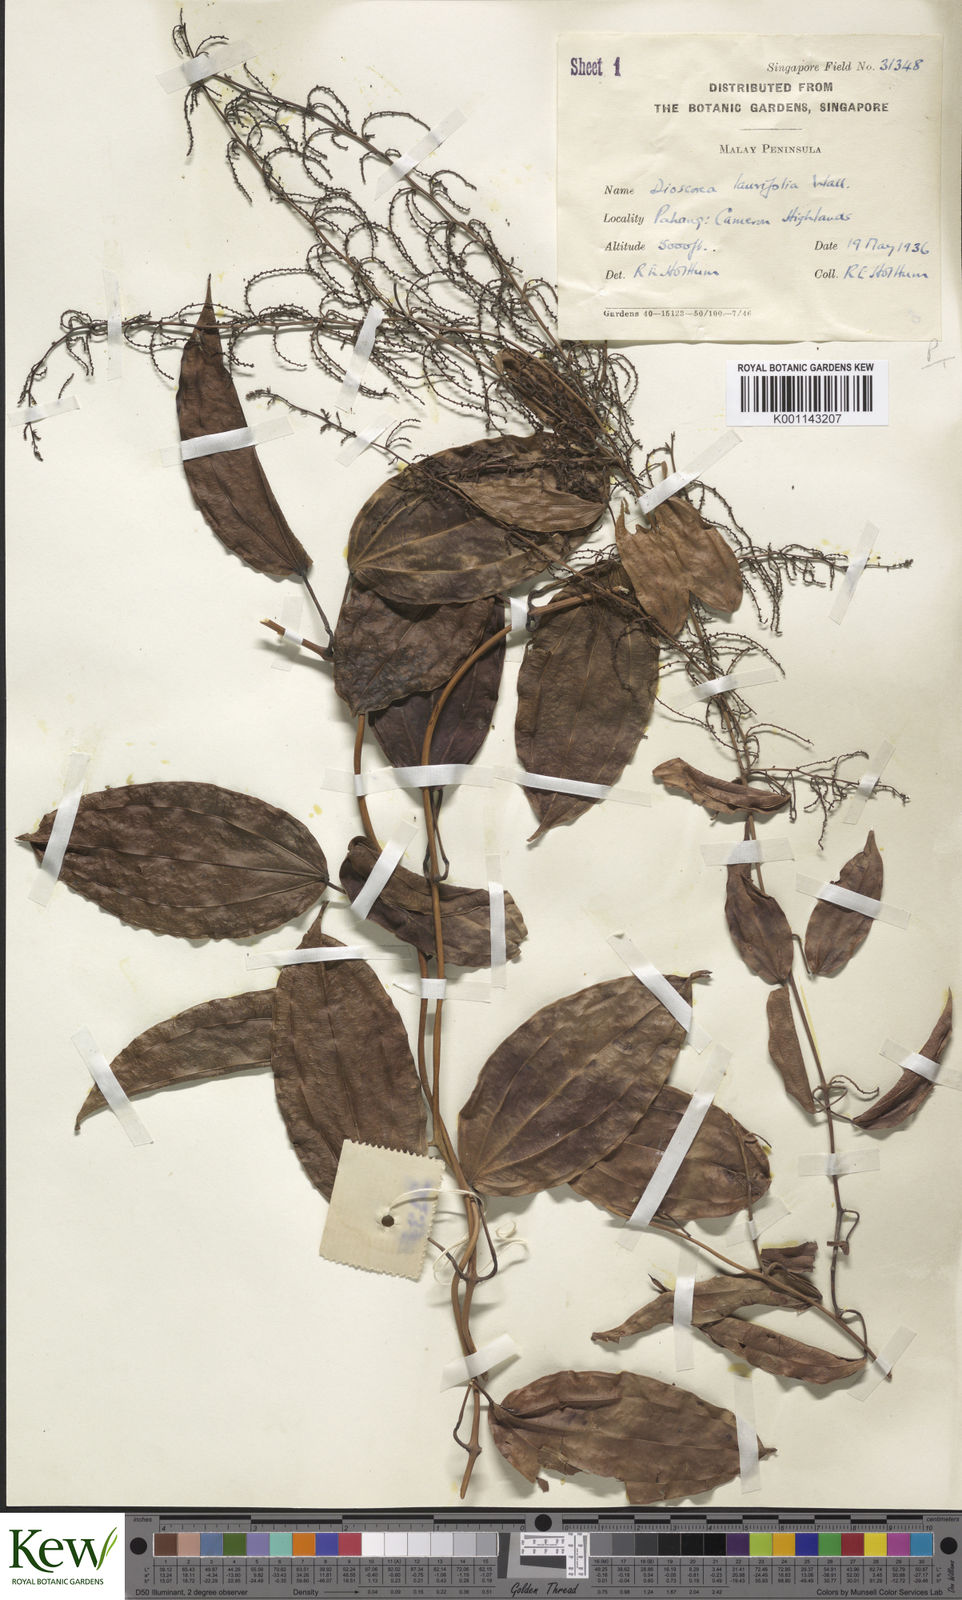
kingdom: Plantae
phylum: Tracheophyta
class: Liliopsida
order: Dioscoreales
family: Dioscoreaceae
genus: Dioscorea
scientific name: Dioscorea laurifolia
